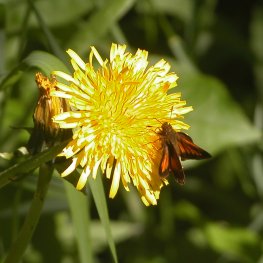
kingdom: Animalia
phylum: Arthropoda
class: Insecta
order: Lepidoptera
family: Hesperiidae
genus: Lon
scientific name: Lon hobomok
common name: Hobomok Skipper
